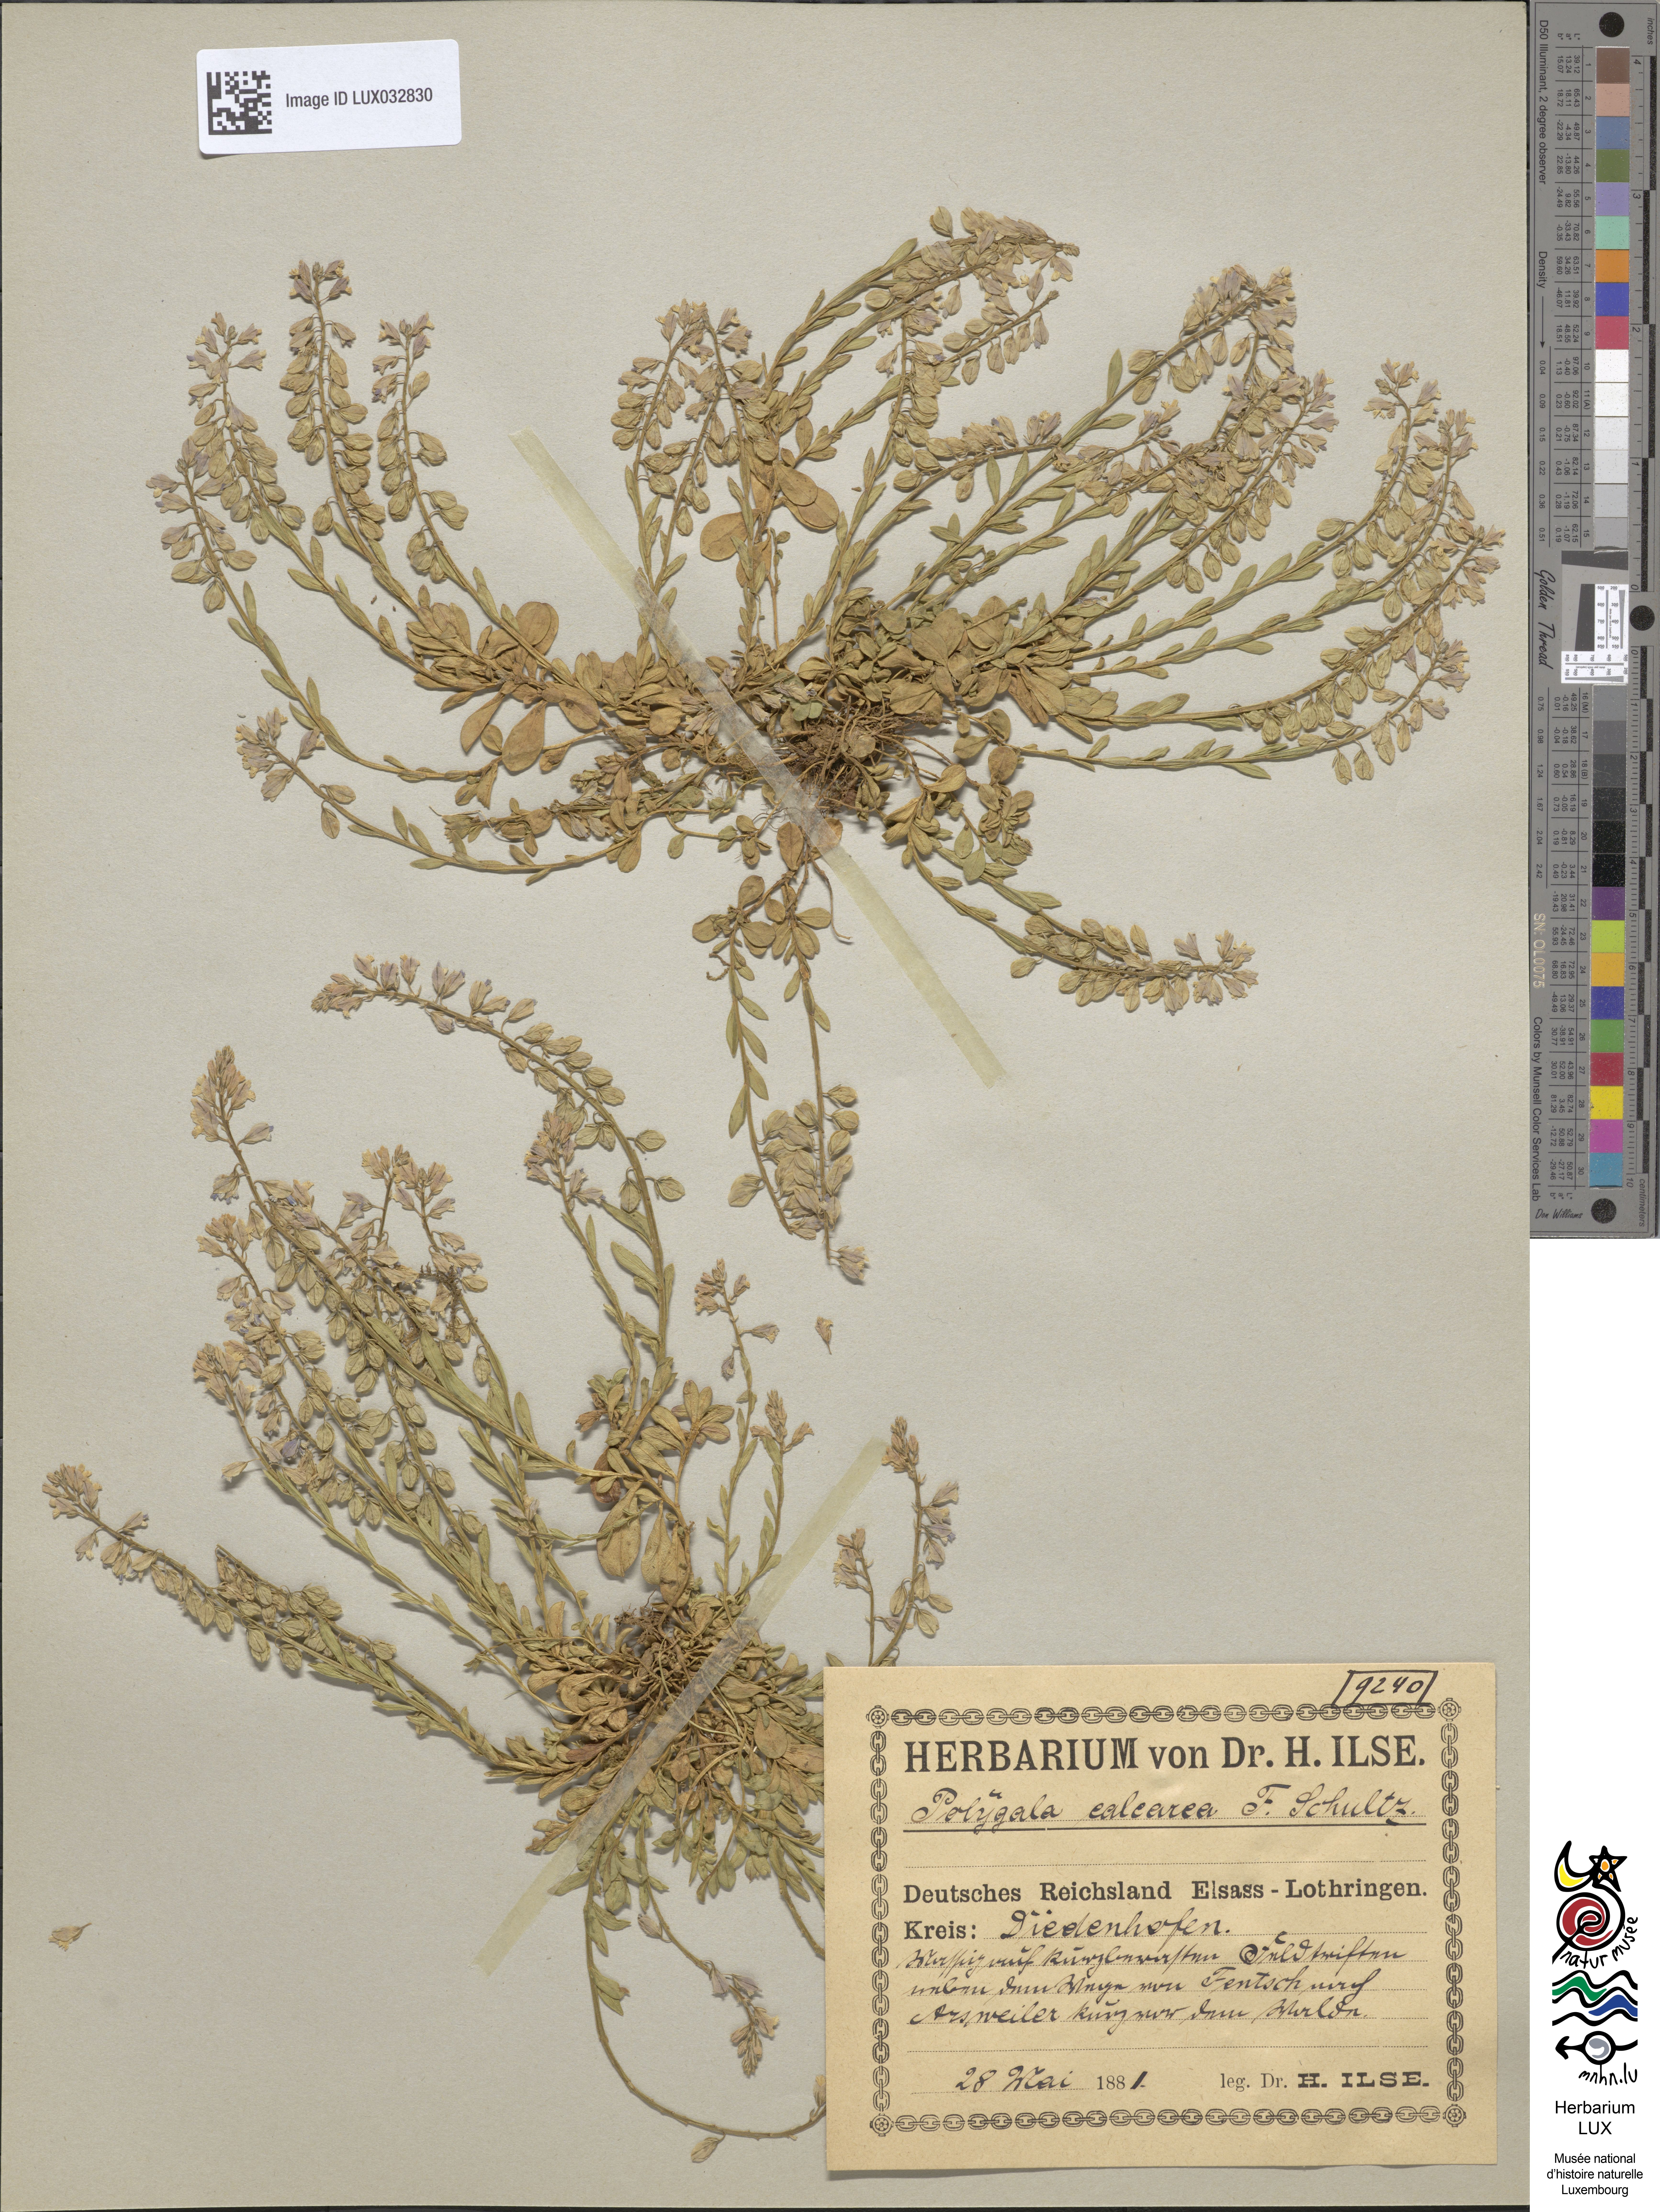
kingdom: Plantae
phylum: Tracheophyta
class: Magnoliopsida
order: Fabales
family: Polygalaceae
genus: Polygala
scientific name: Polygala calcarea
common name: Chalk milkwort
